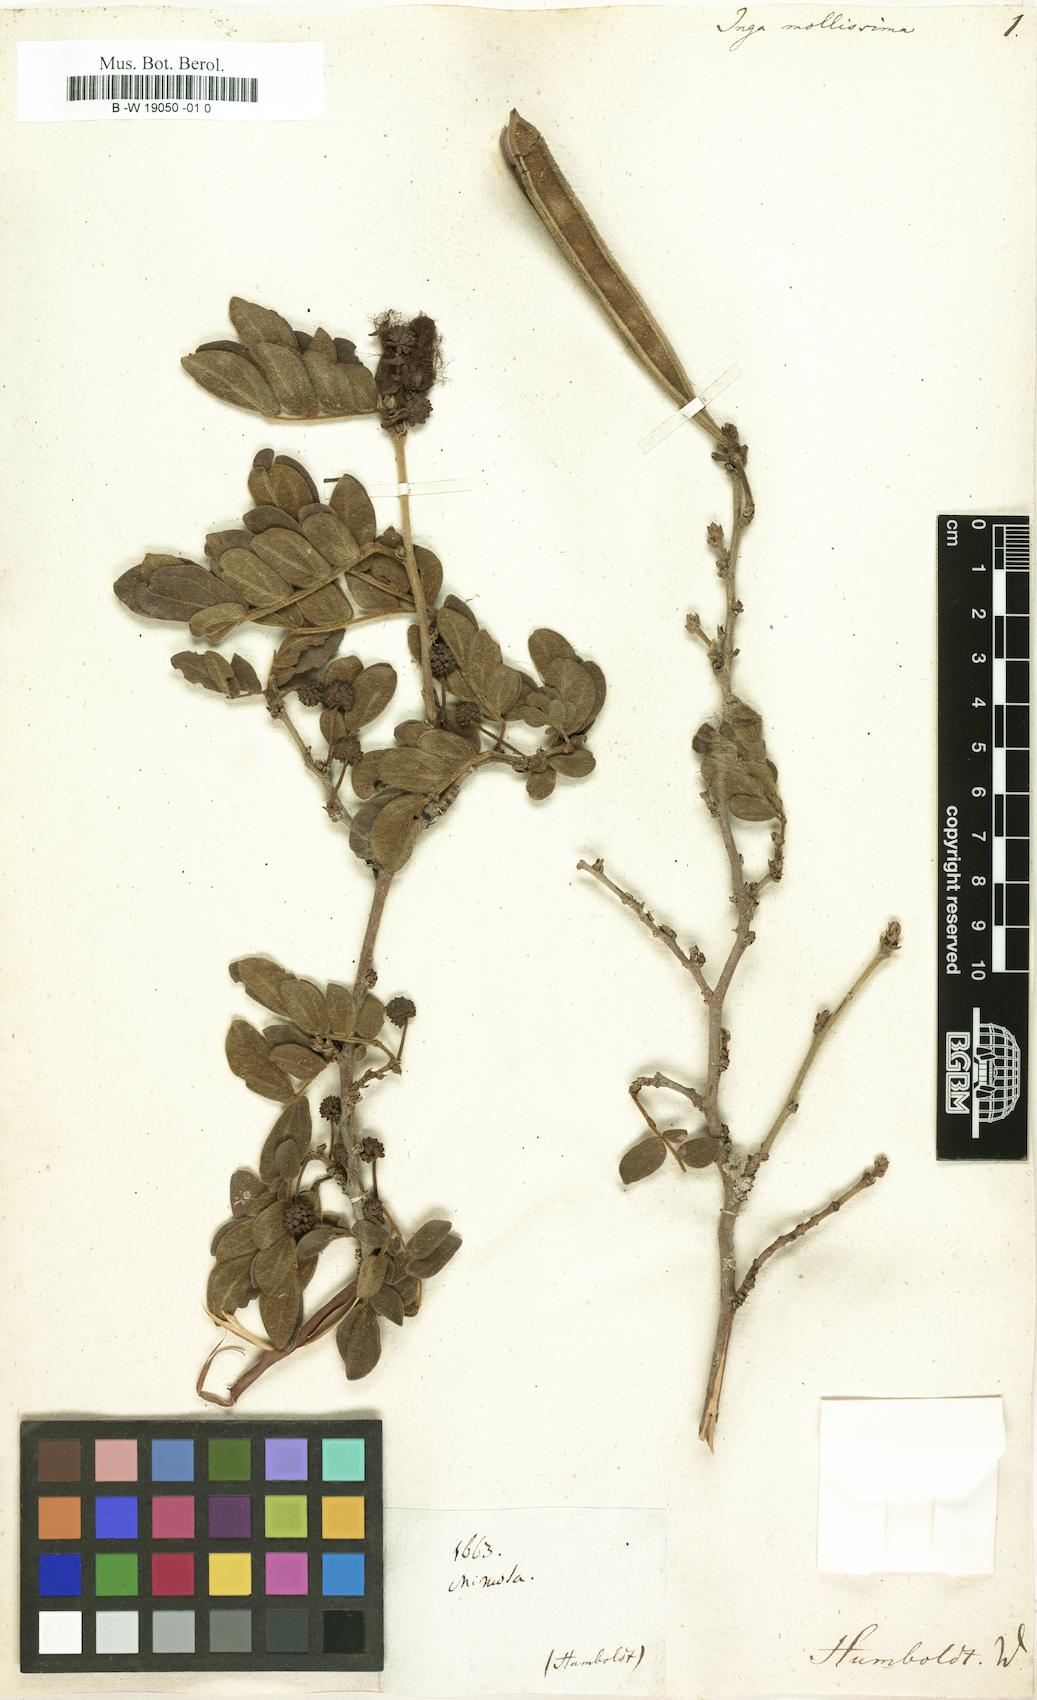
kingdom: Plantae
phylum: Tracheophyta
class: Magnoliopsida
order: Fabales
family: Fabaceae
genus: Calliandra
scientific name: Calliandra mollissima
